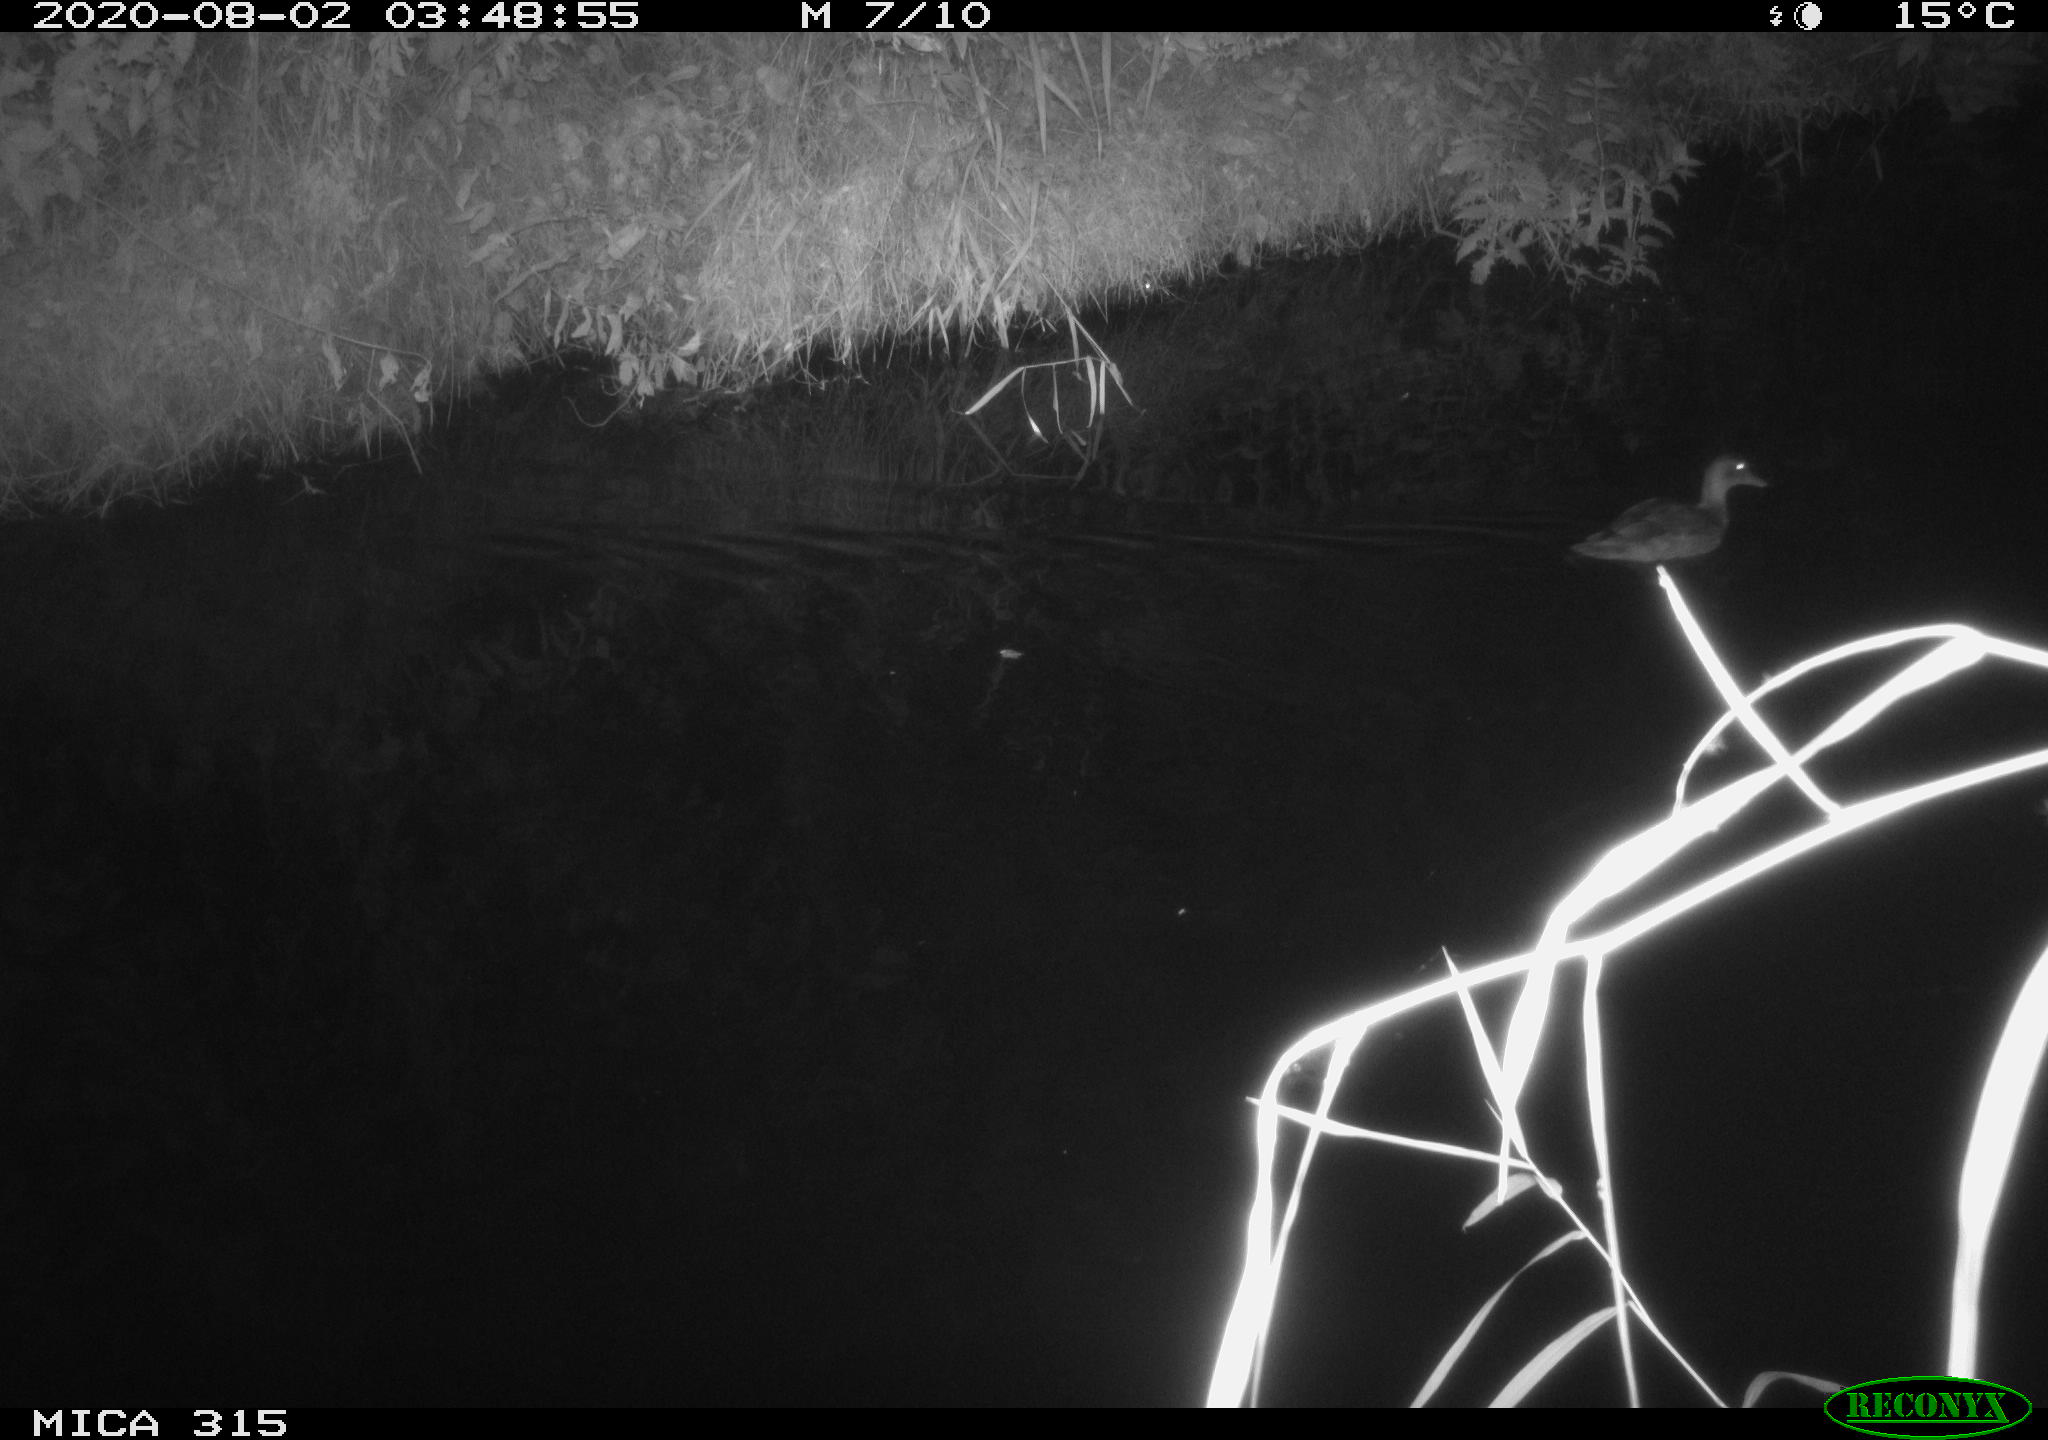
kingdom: Animalia
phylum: Chordata
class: Aves
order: Anseriformes
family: Anatidae
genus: Anas
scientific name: Anas platyrhynchos
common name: Mallard
